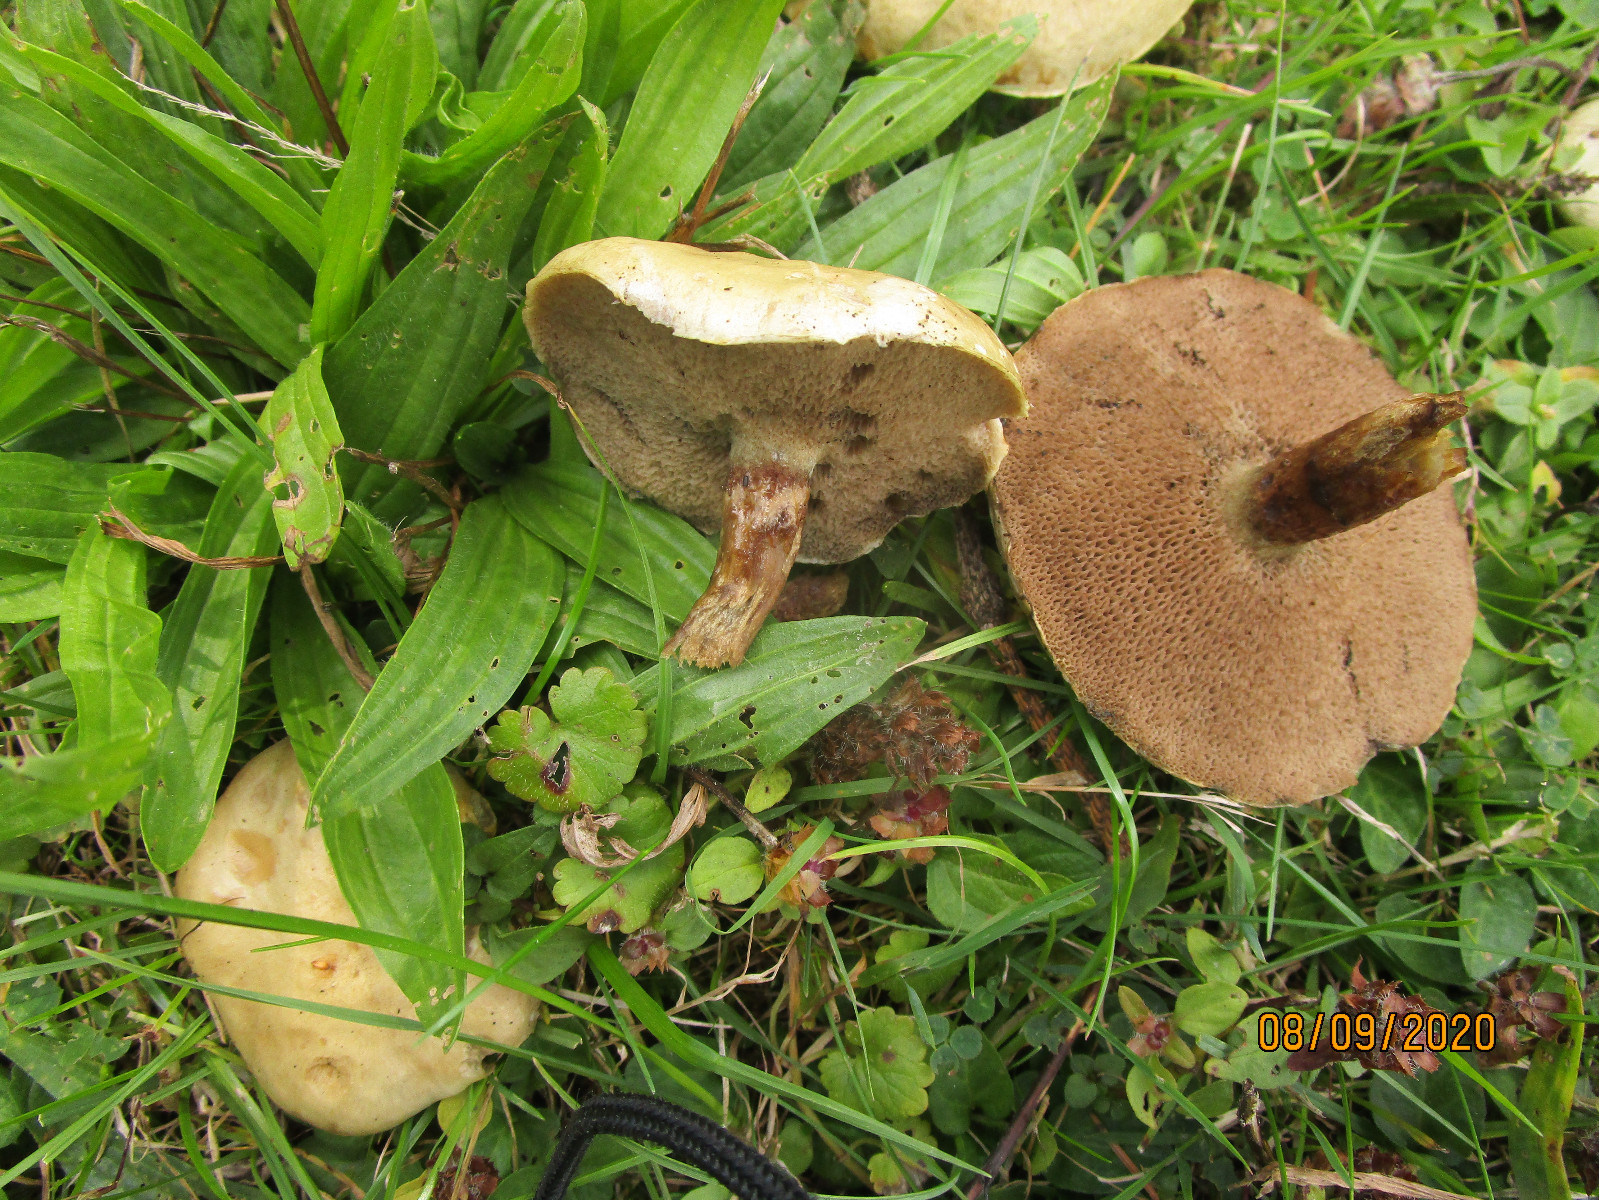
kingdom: Fungi
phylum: Basidiomycota
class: Agaricomycetes
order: Boletales
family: Suillaceae
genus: Suillus
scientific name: Suillus viscidus
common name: olivengrå slimrørhat
